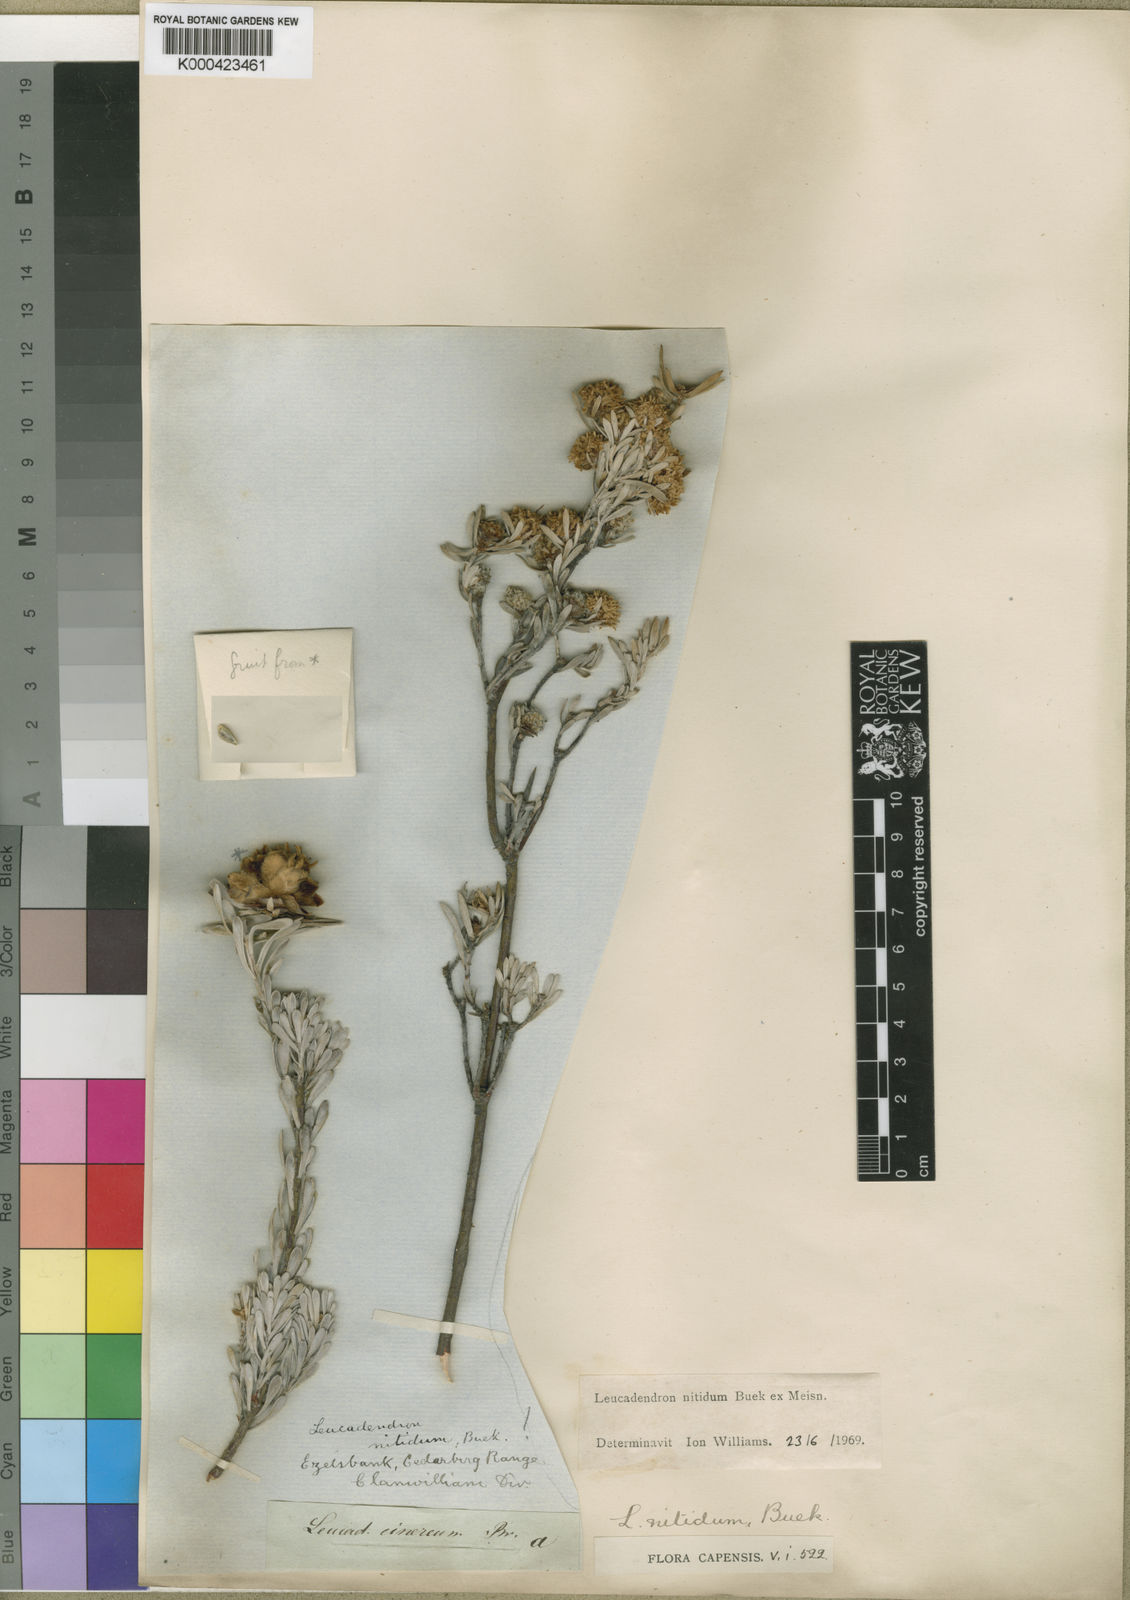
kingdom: Plantae
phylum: Tracheophyta
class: Magnoliopsida
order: Proteales
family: Proteaceae
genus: Leucadendron
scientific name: Leucadendron nitidum
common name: Bokkeveld conebush
